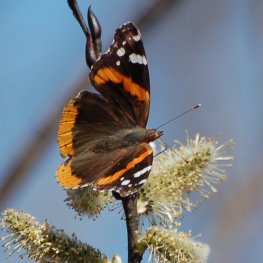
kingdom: Animalia
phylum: Arthropoda
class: Insecta
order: Lepidoptera
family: Nymphalidae
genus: Vanessa
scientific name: Vanessa atalanta
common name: Red Admiral
